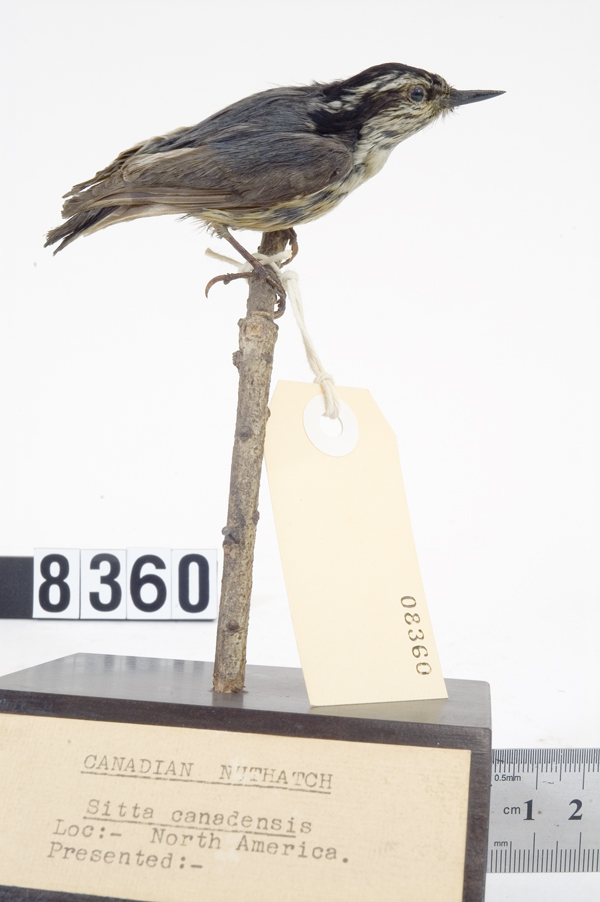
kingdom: Animalia
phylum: Chordata
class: Aves
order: Passeriformes
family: Sittidae
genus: Sitta
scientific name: Sitta canadensis
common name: Red-breasted nuthatch
